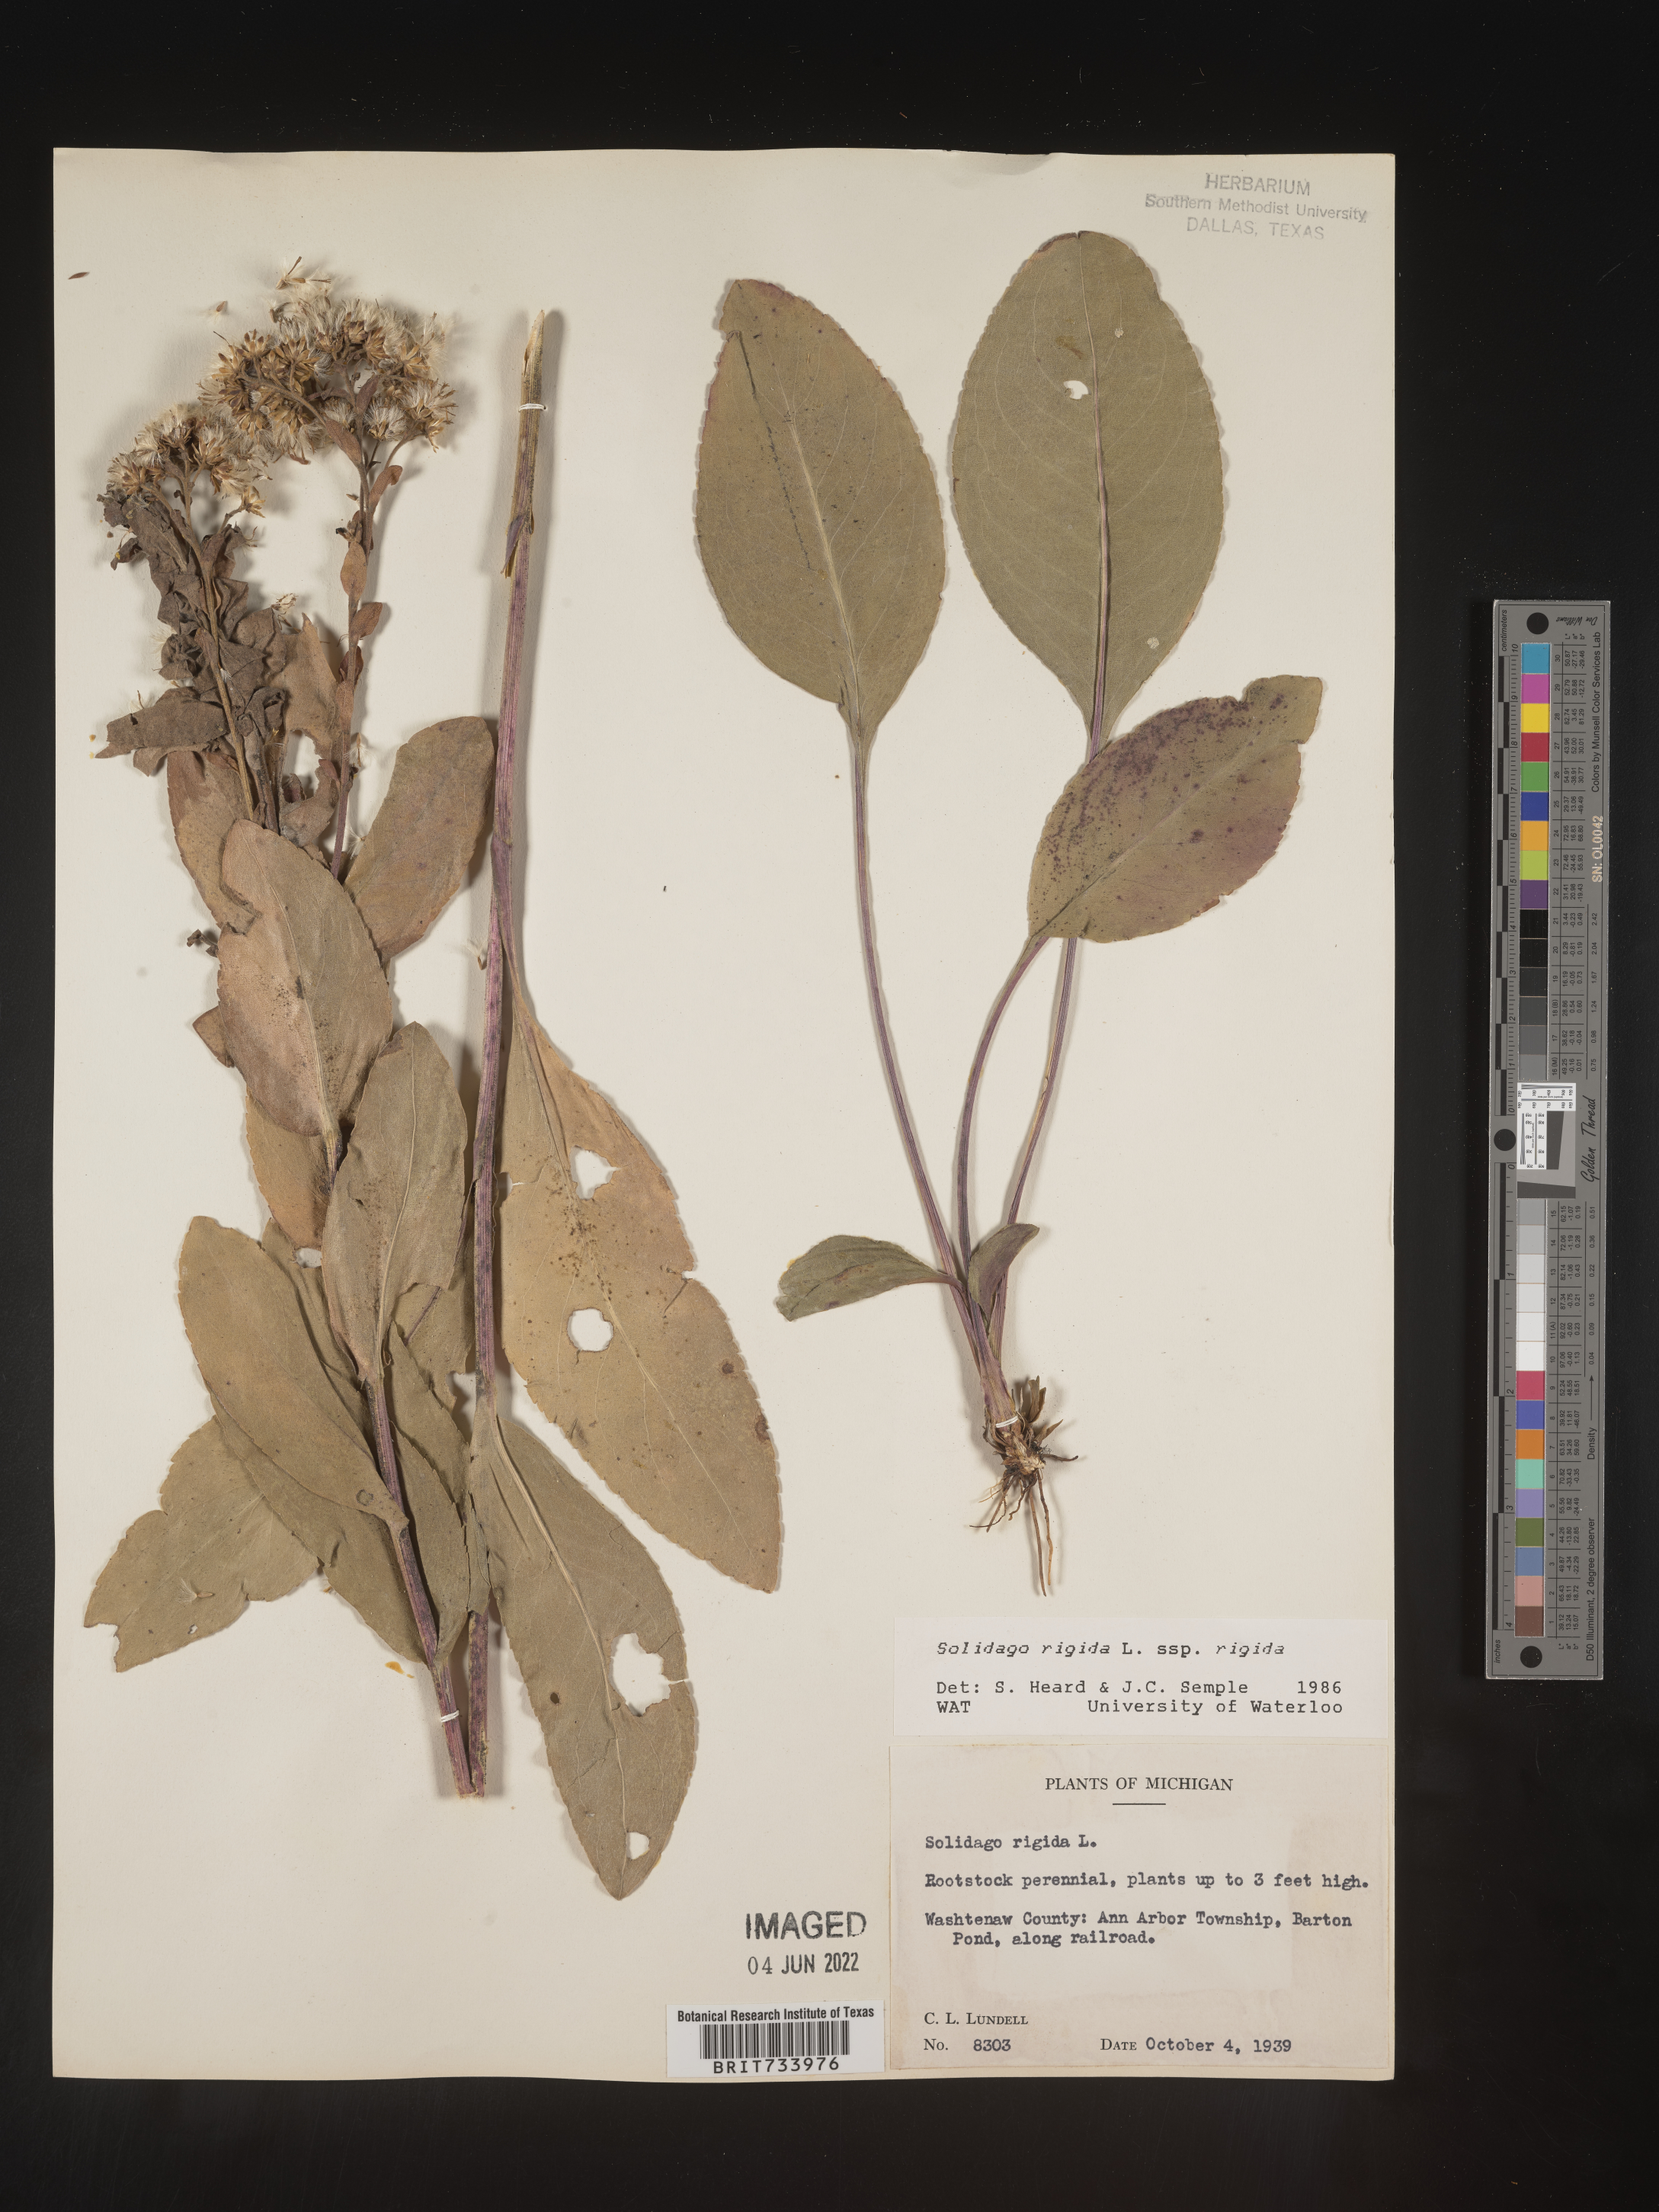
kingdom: Plantae
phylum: Tracheophyta
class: Magnoliopsida
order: Asterales
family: Asteraceae
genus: Solidago
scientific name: Solidago rigida
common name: Rigid goldenrod
